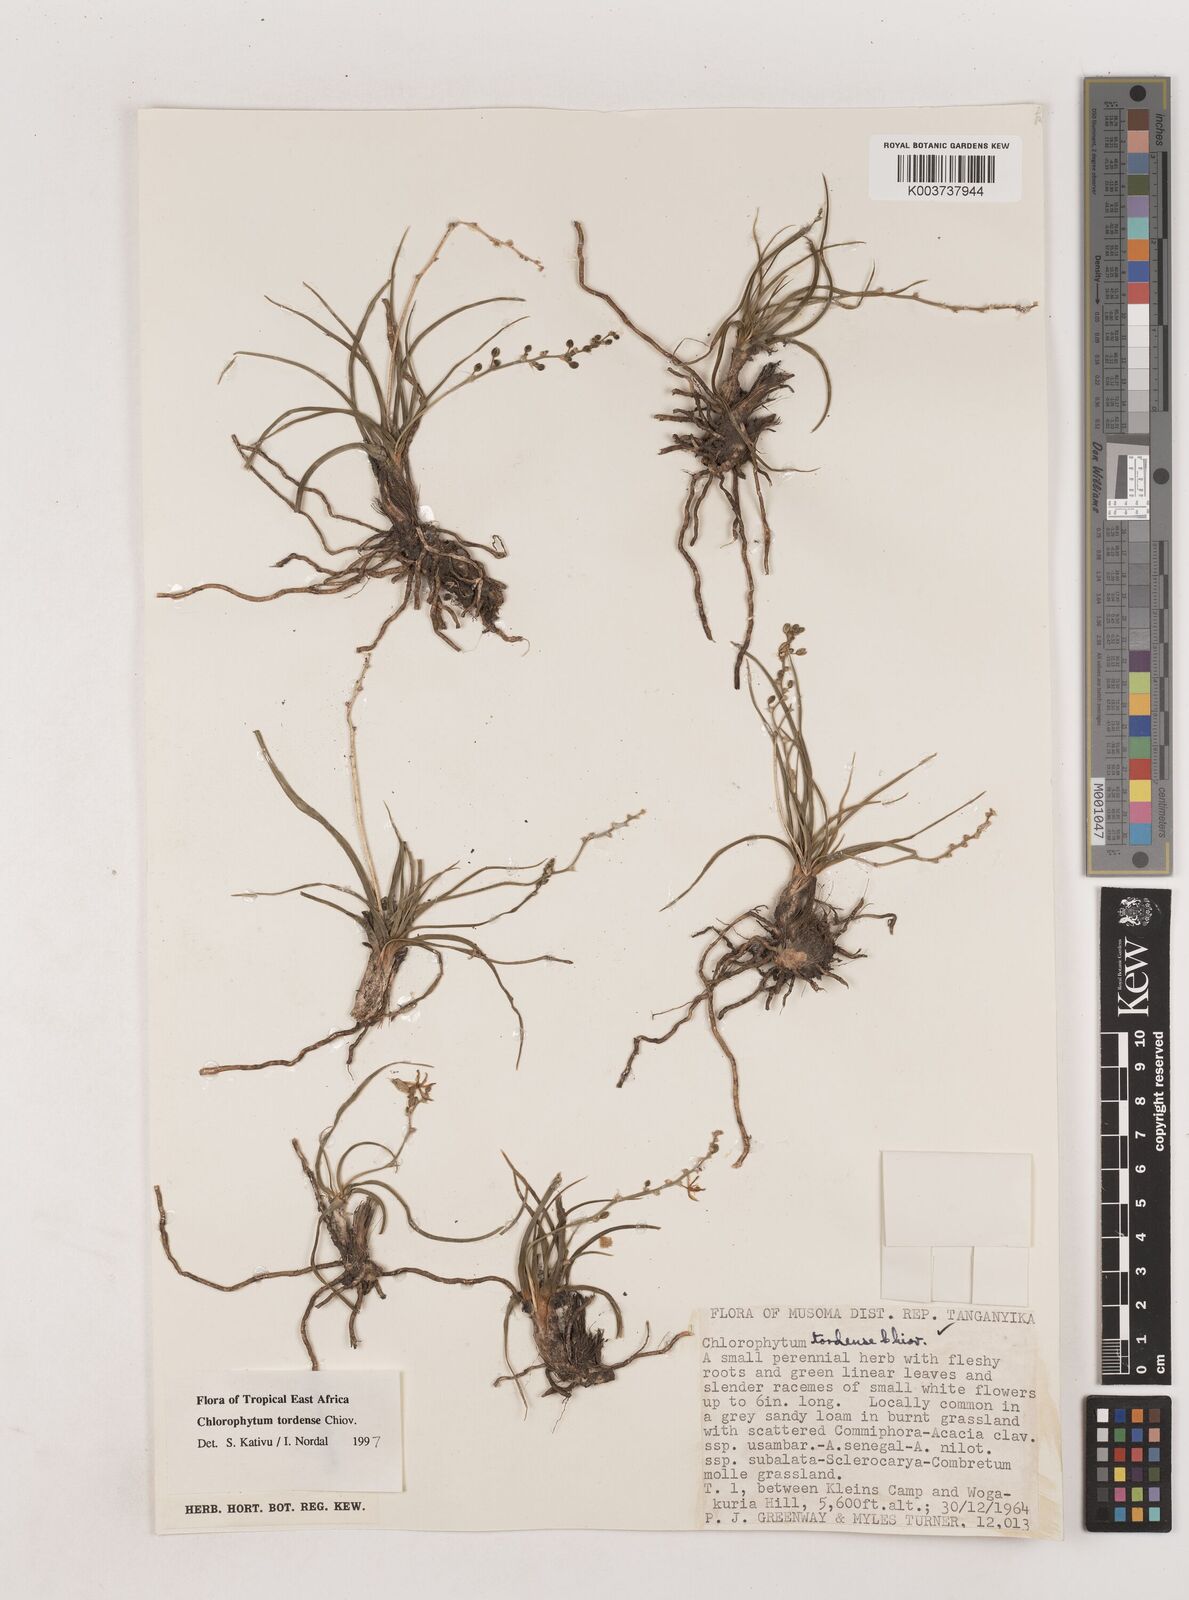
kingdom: Plantae
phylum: Tracheophyta
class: Liliopsida
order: Asparagales
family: Asparagaceae
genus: Chlorophytum
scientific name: Chlorophytum tordense
